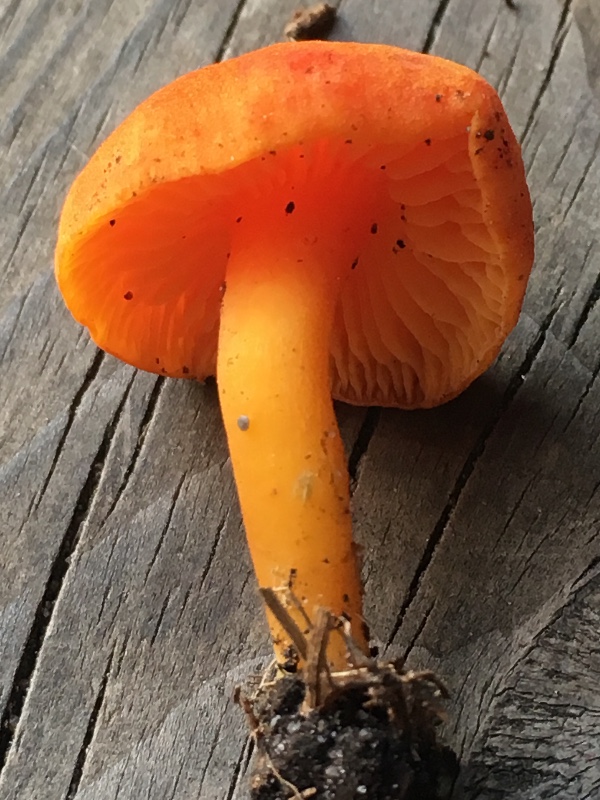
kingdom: Fungi
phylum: Basidiomycota
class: Agaricomycetes
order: Agaricales
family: Hygrophoraceae
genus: Hygrocybe
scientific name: Hygrocybe miniata
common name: mønje-vokshat
